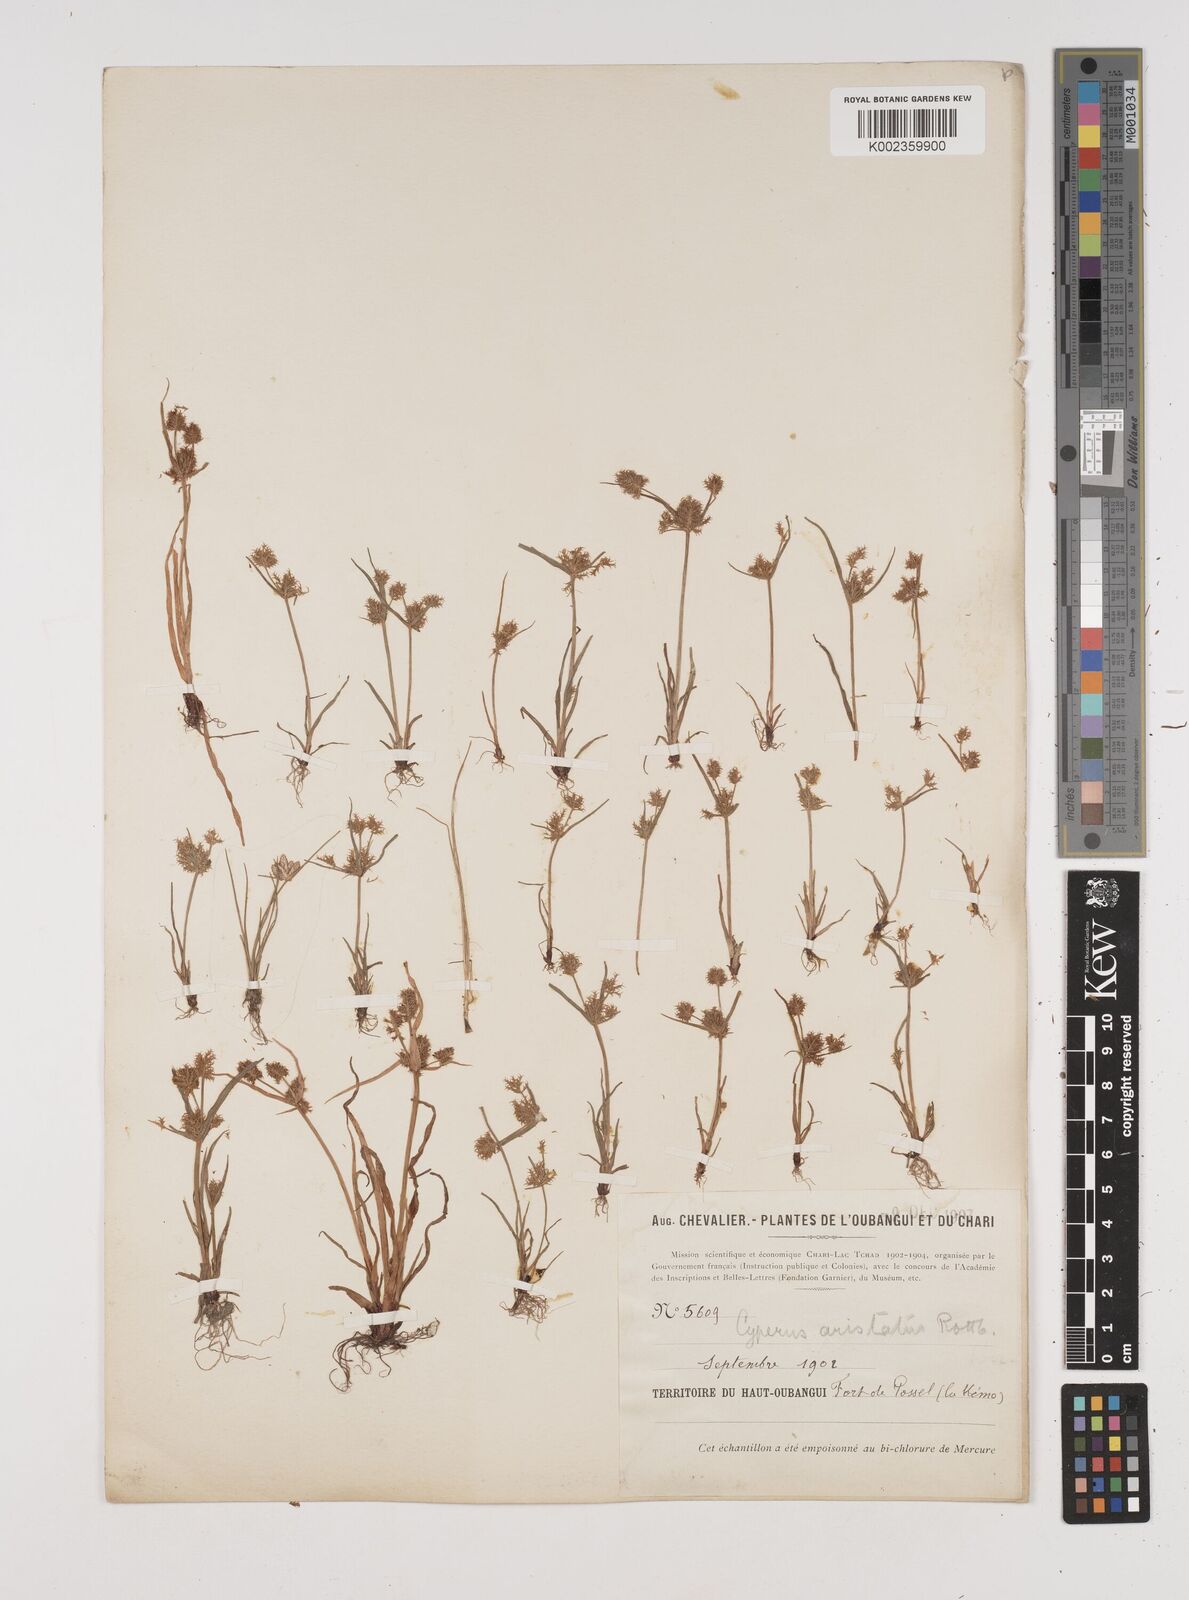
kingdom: Plantae
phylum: Tracheophyta
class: Liliopsida
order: Poales
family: Cyperaceae
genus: Cyperus
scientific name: Cyperus squarrosus
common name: Awned cyperus
